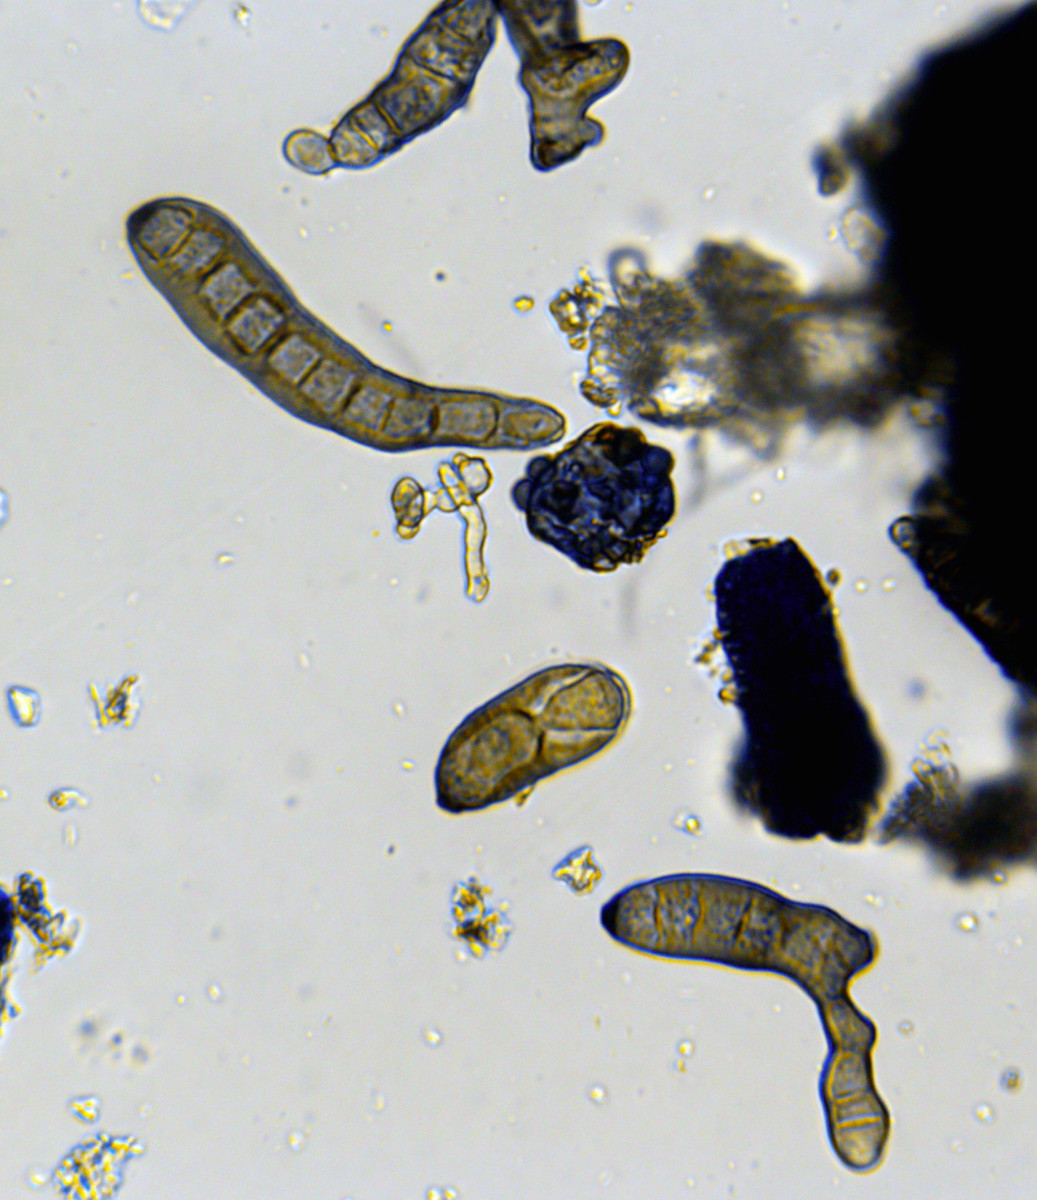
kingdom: Fungi
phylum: Ascomycota
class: Dothideomycetes
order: Pleosporales
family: Massarinaceae
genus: Helminthosporium
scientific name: Helminthosporium oligosporum
